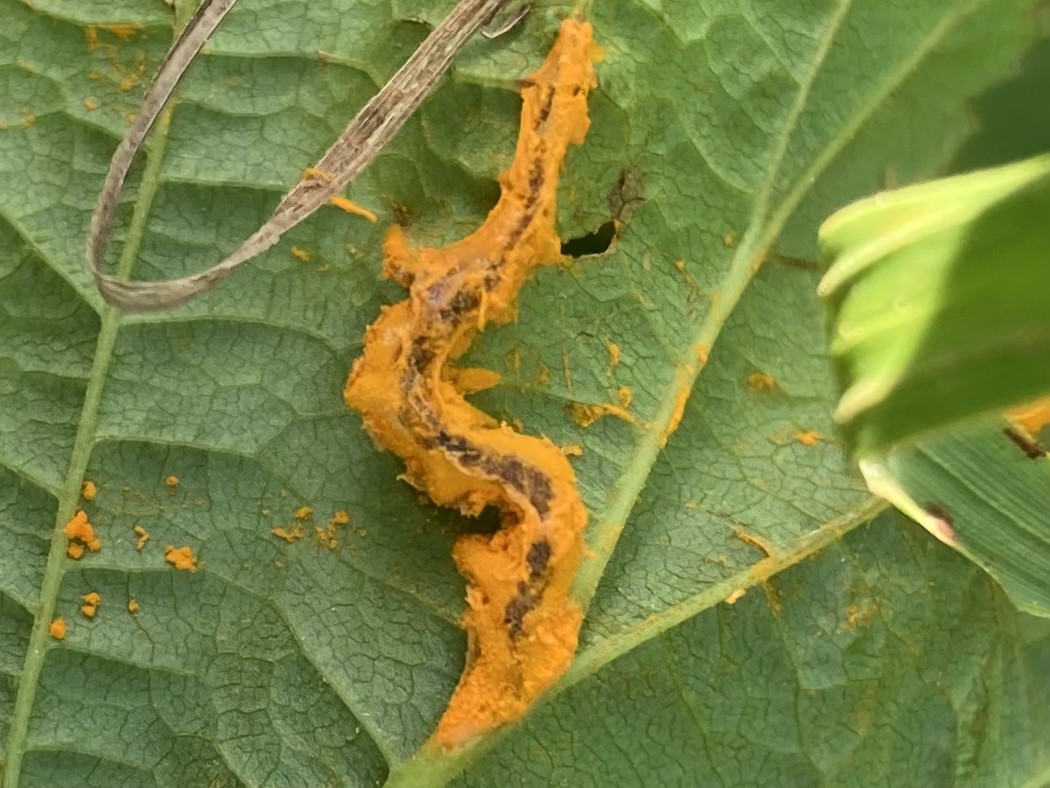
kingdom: Fungi
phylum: Basidiomycota
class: Pucciniomycetes
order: Pucciniales
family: Raveneliaceae
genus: Triphragmium
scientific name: Triphragmium ulmariae
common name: almindelig mjødurtrust
